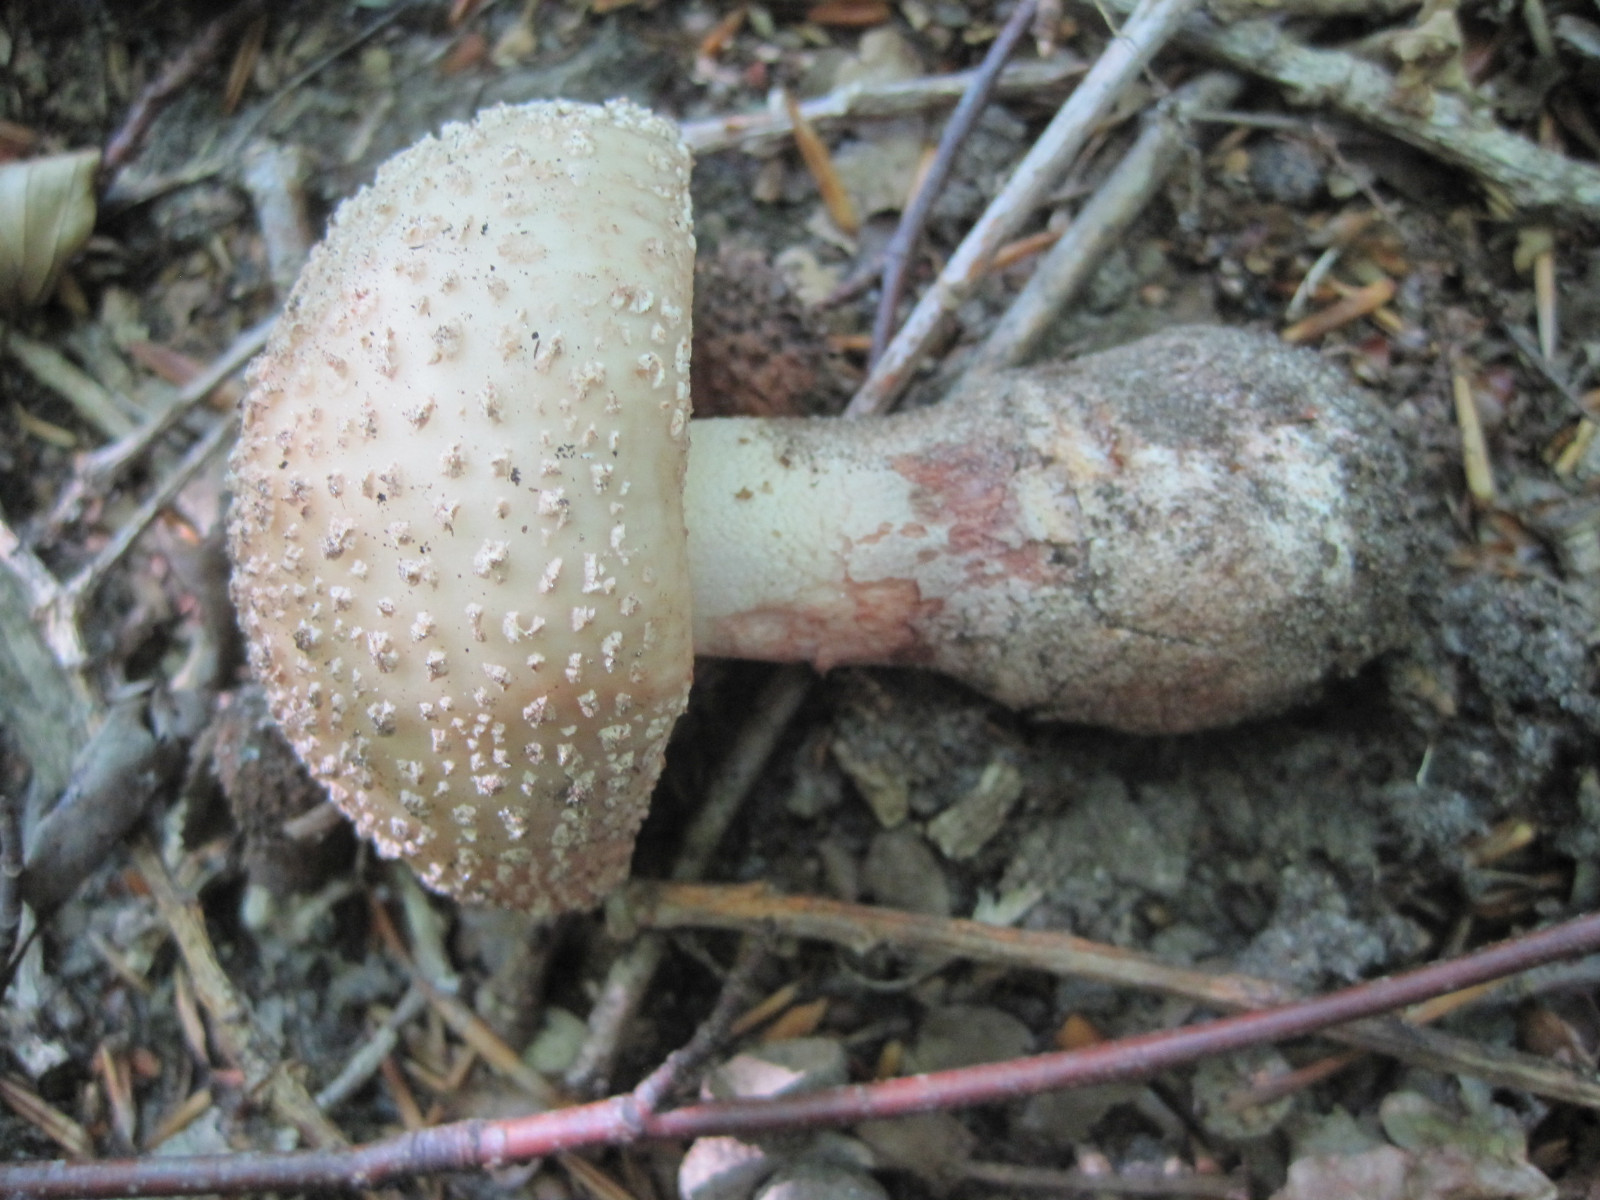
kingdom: Fungi
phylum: Basidiomycota
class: Agaricomycetes
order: Agaricales
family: Amanitaceae
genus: Amanita
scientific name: Amanita rubescens
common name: rødmende fluesvamp
